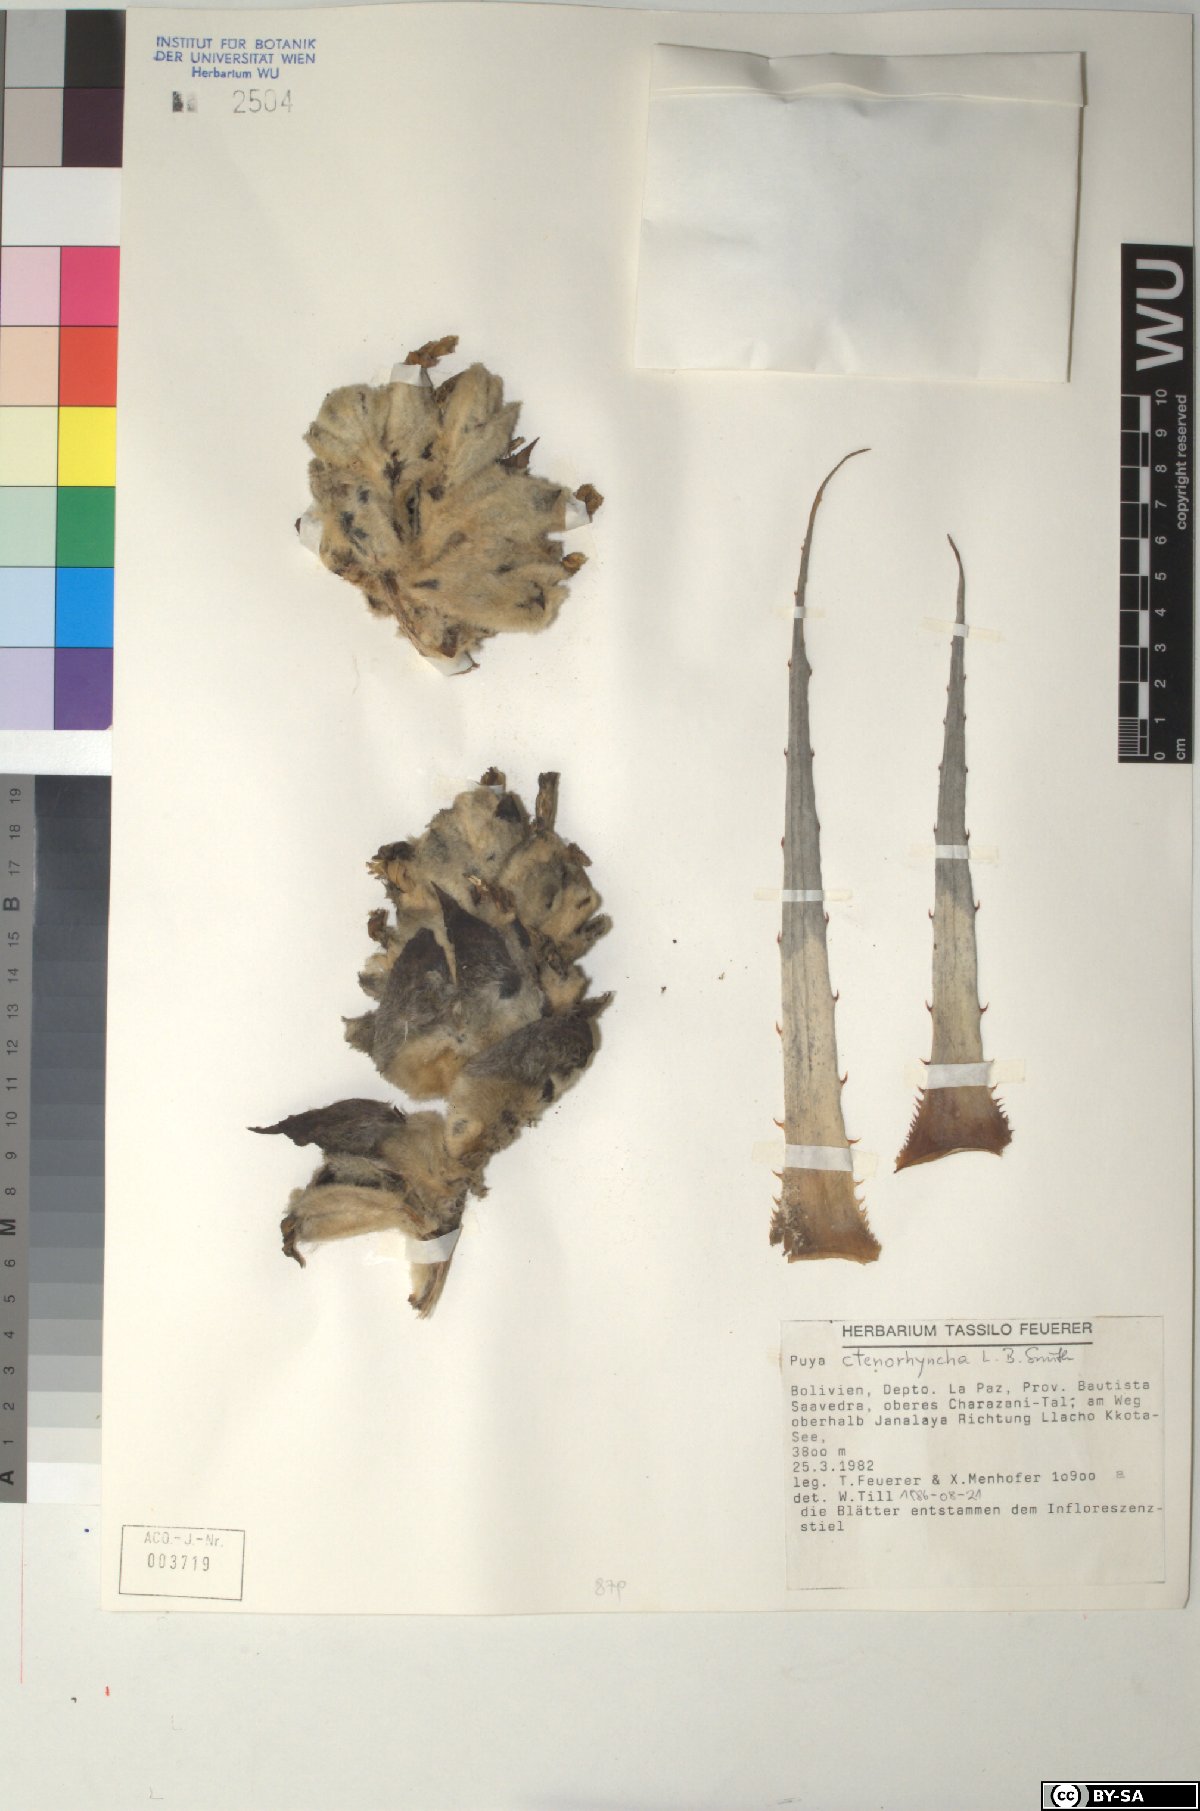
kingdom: Plantae
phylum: Tracheophyta
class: Liliopsida
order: Poales
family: Bromeliaceae
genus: Puya
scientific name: Puya ctenorhyncha
